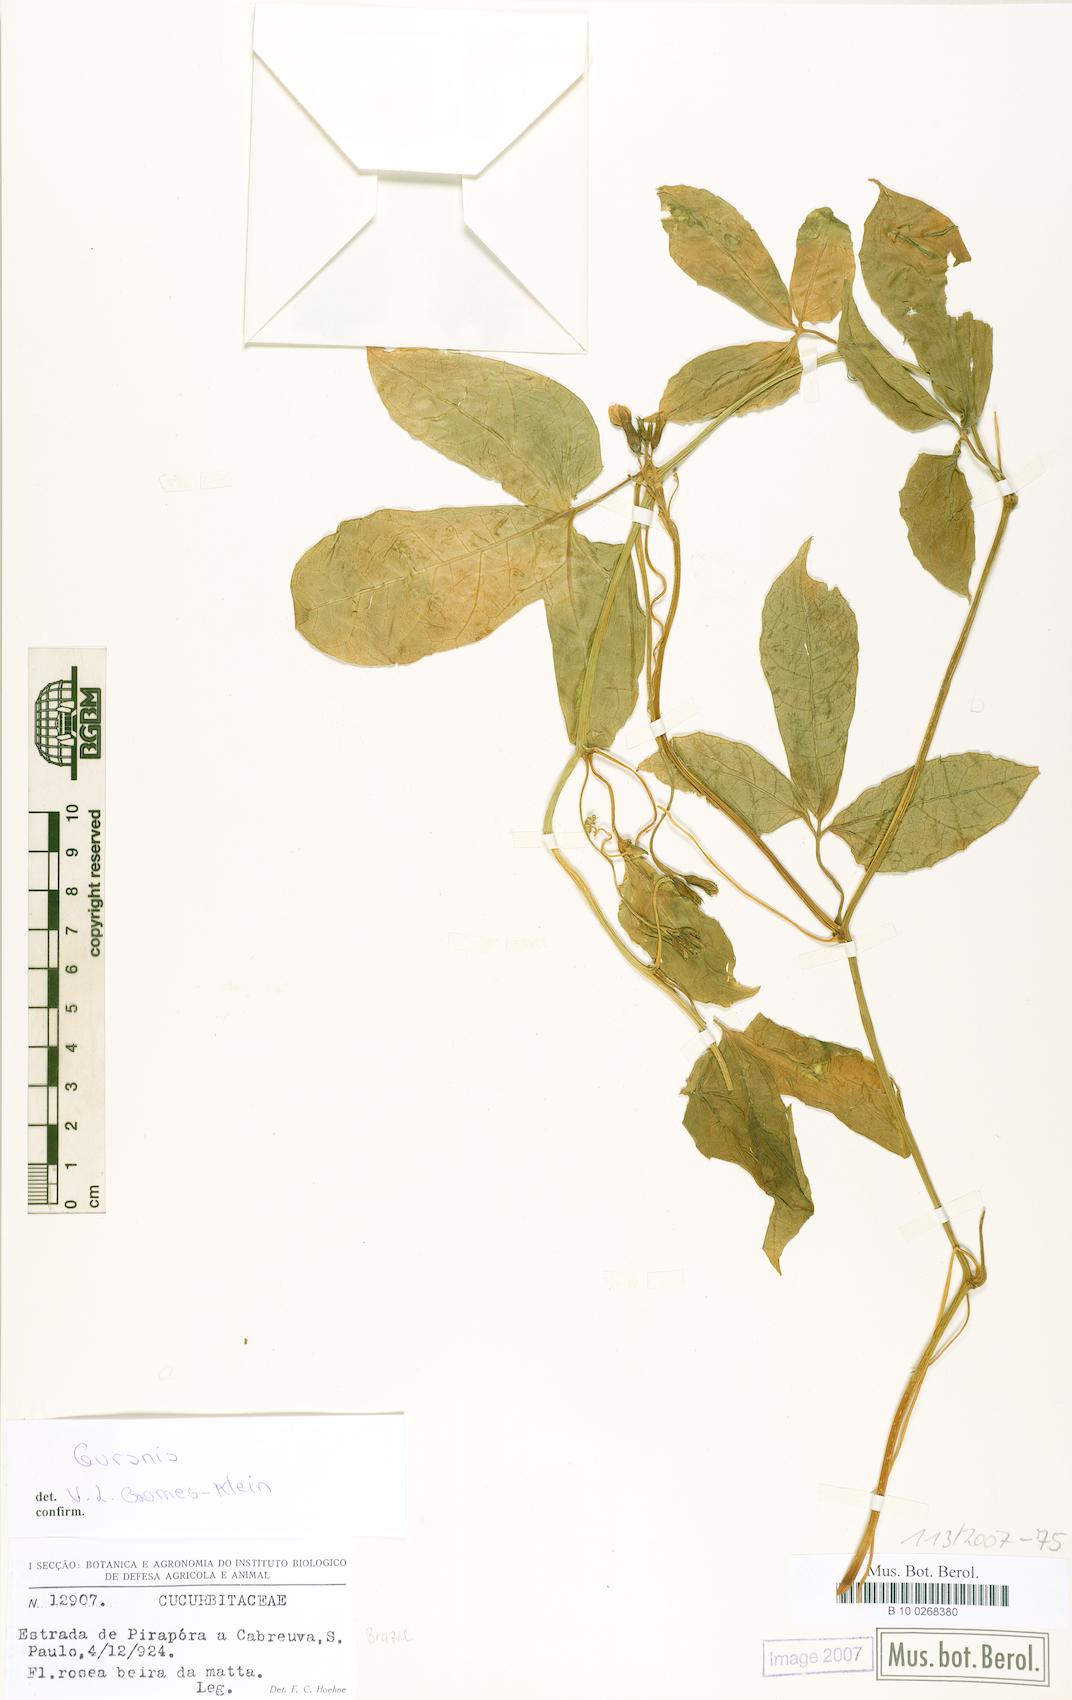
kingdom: Plantae
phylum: Tracheophyta
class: Magnoliopsida
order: Cucurbitales
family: Cucurbitaceae
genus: Psiguria
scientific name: Psiguria
